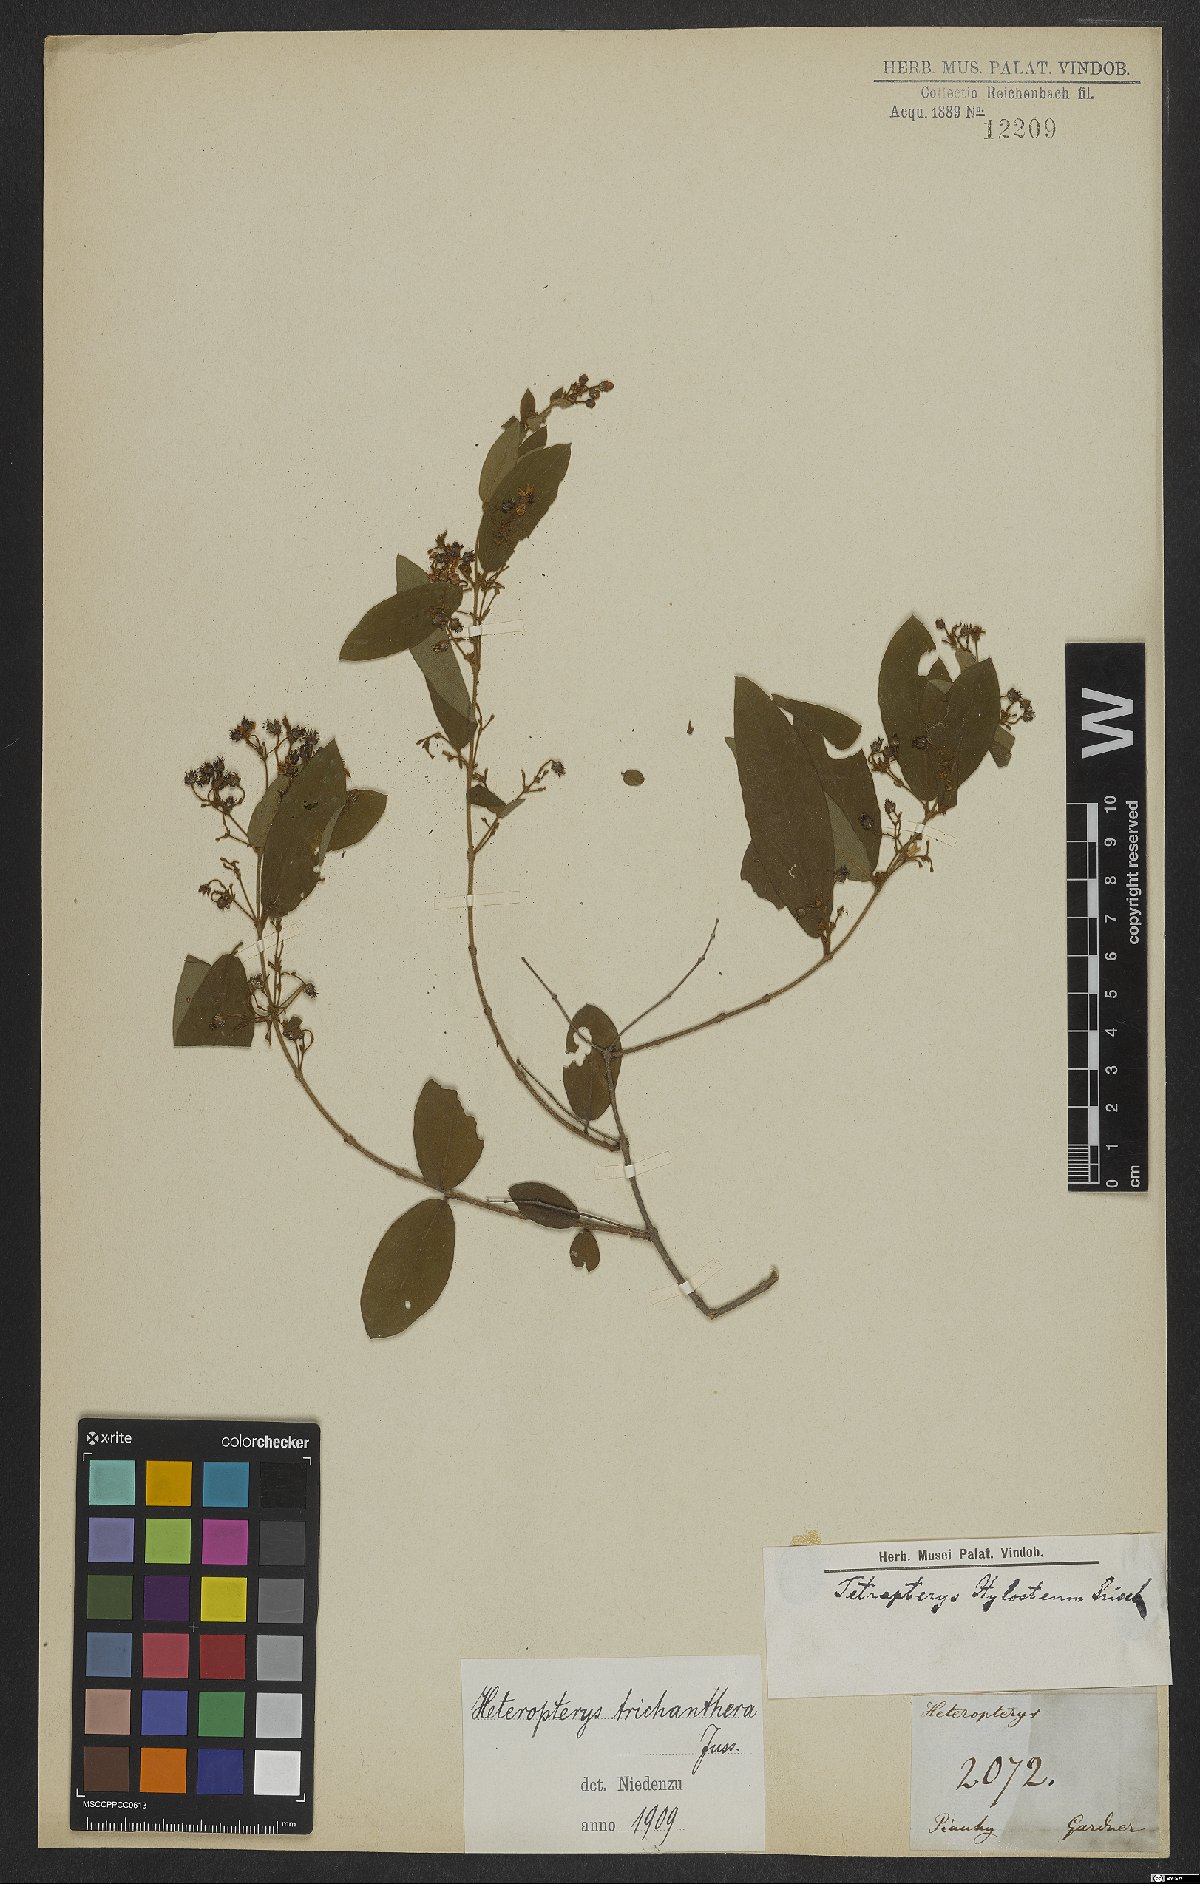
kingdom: Plantae
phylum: Tracheophyta
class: Magnoliopsida
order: Malpighiales
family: Malpighiaceae
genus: Heteropterys
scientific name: Heteropterys trichanthera
